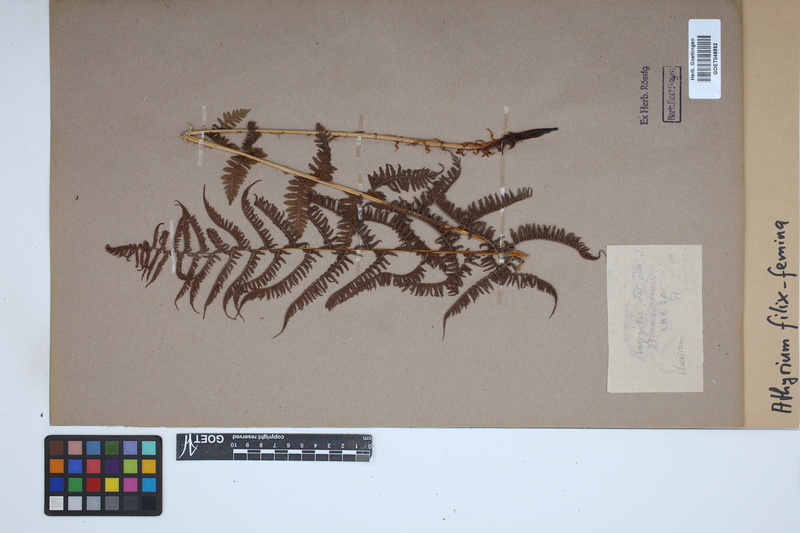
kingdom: Plantae
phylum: Tracheophyta
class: Polypodiopsida
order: Polypodiales
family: Athyriaceae
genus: Athyrium
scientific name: Athyrium filix-femina
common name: Lady fern
